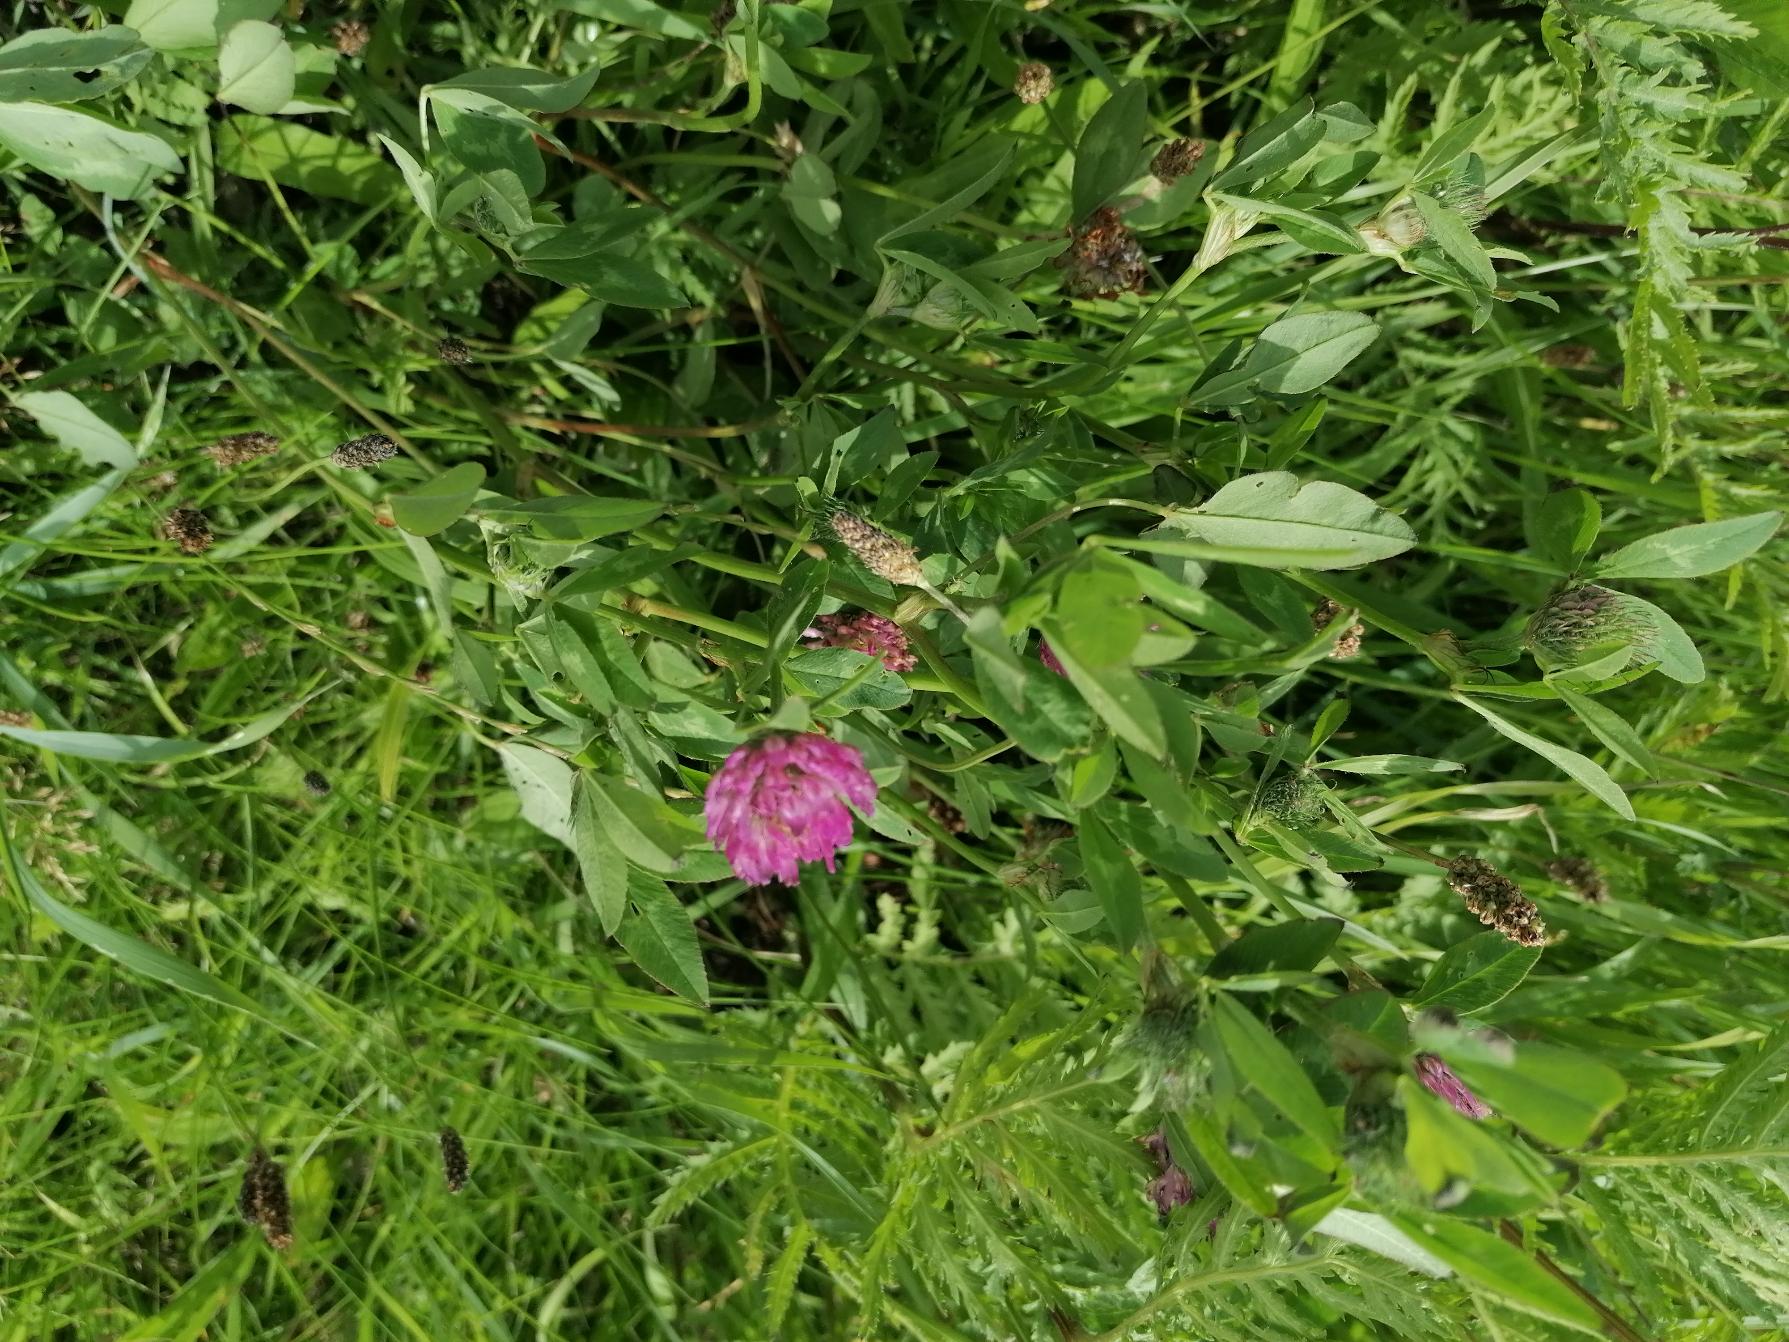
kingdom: Plantae
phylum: Tracheophyta
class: Magnoliopsida
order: Fabales
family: Fabaceae
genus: Trifolium
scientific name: Trifolium pratense
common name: Rød-kløver
